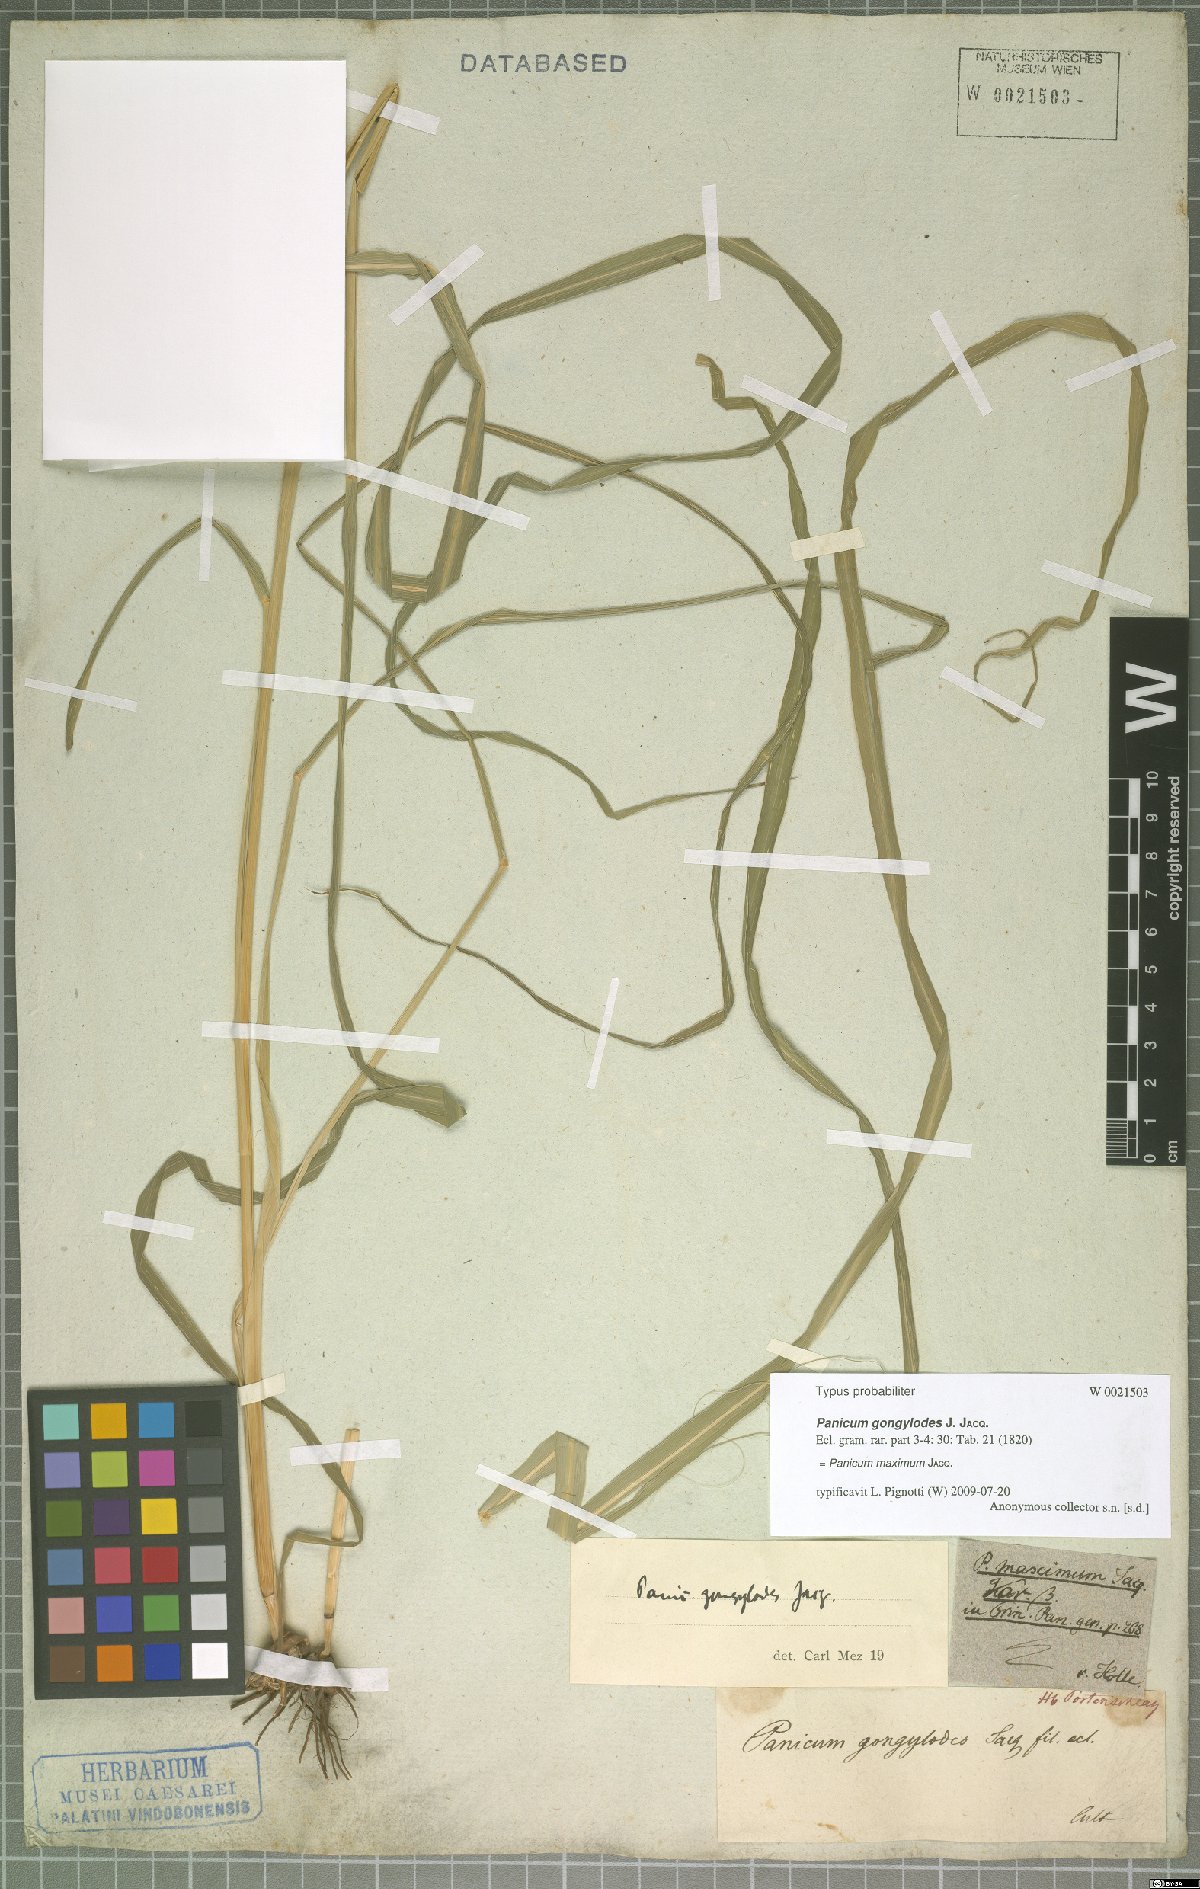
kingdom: Plantae
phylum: Tracheophyta
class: Liliopsida
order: Poales
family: Poaceae
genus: Megathyrsus
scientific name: Megathyrsus maximus
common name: Guineagrass
